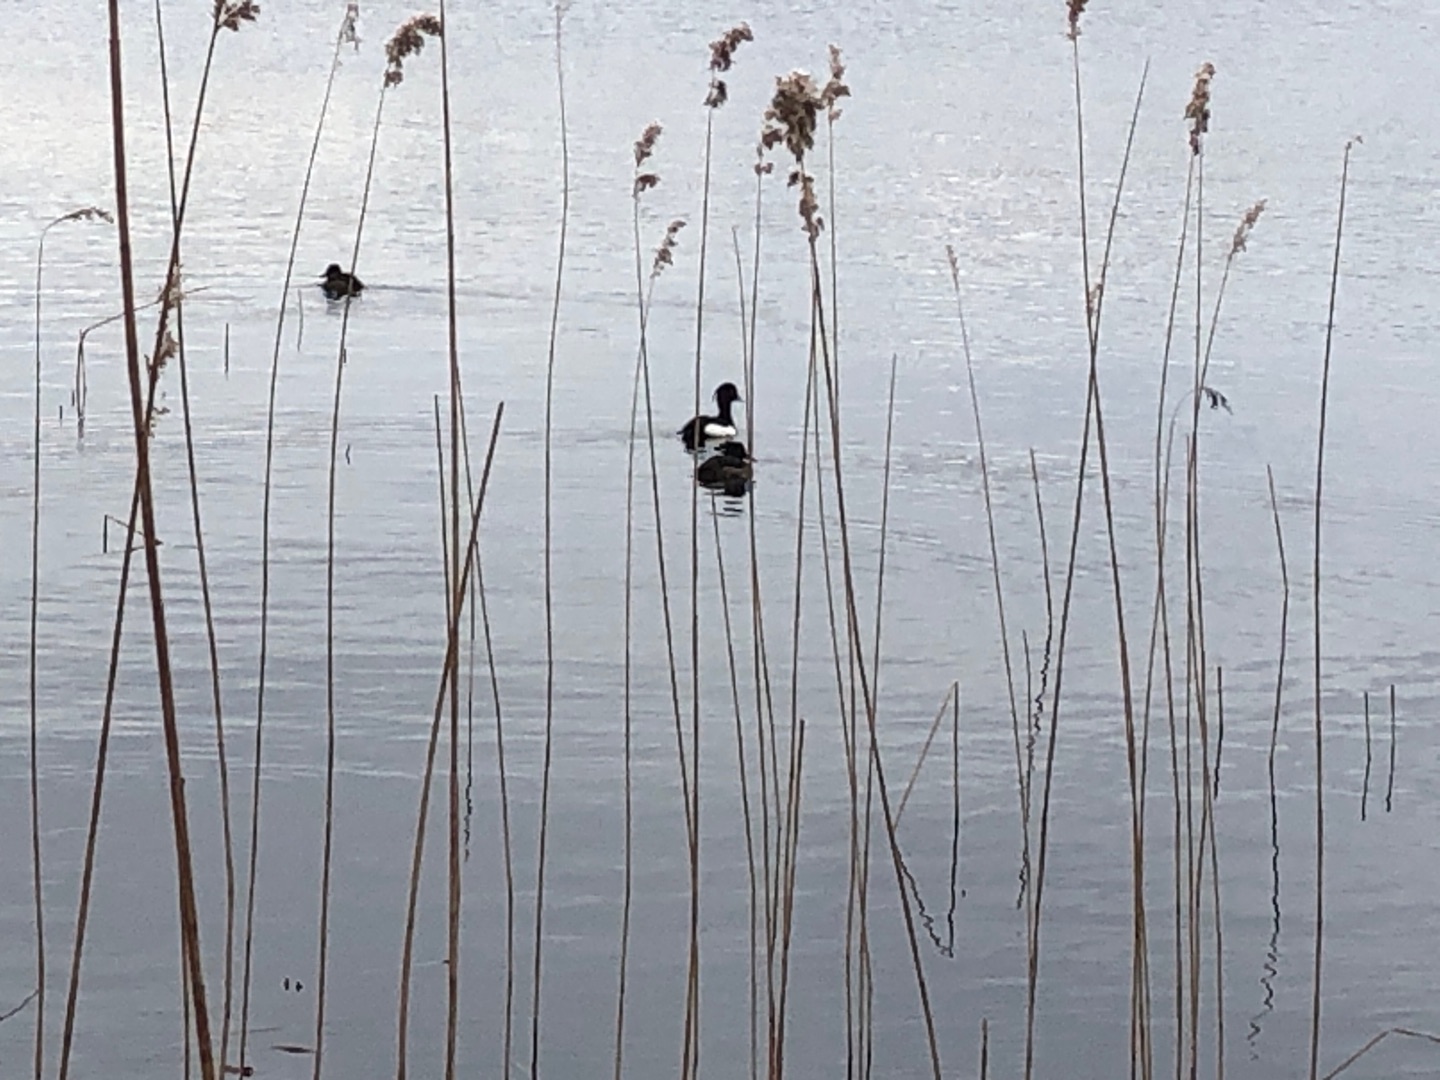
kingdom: Animalia
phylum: Chordata
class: Aves
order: Anseriformes
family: Anatidae
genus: Aythya
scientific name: Aythya fuligula
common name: Troldand
